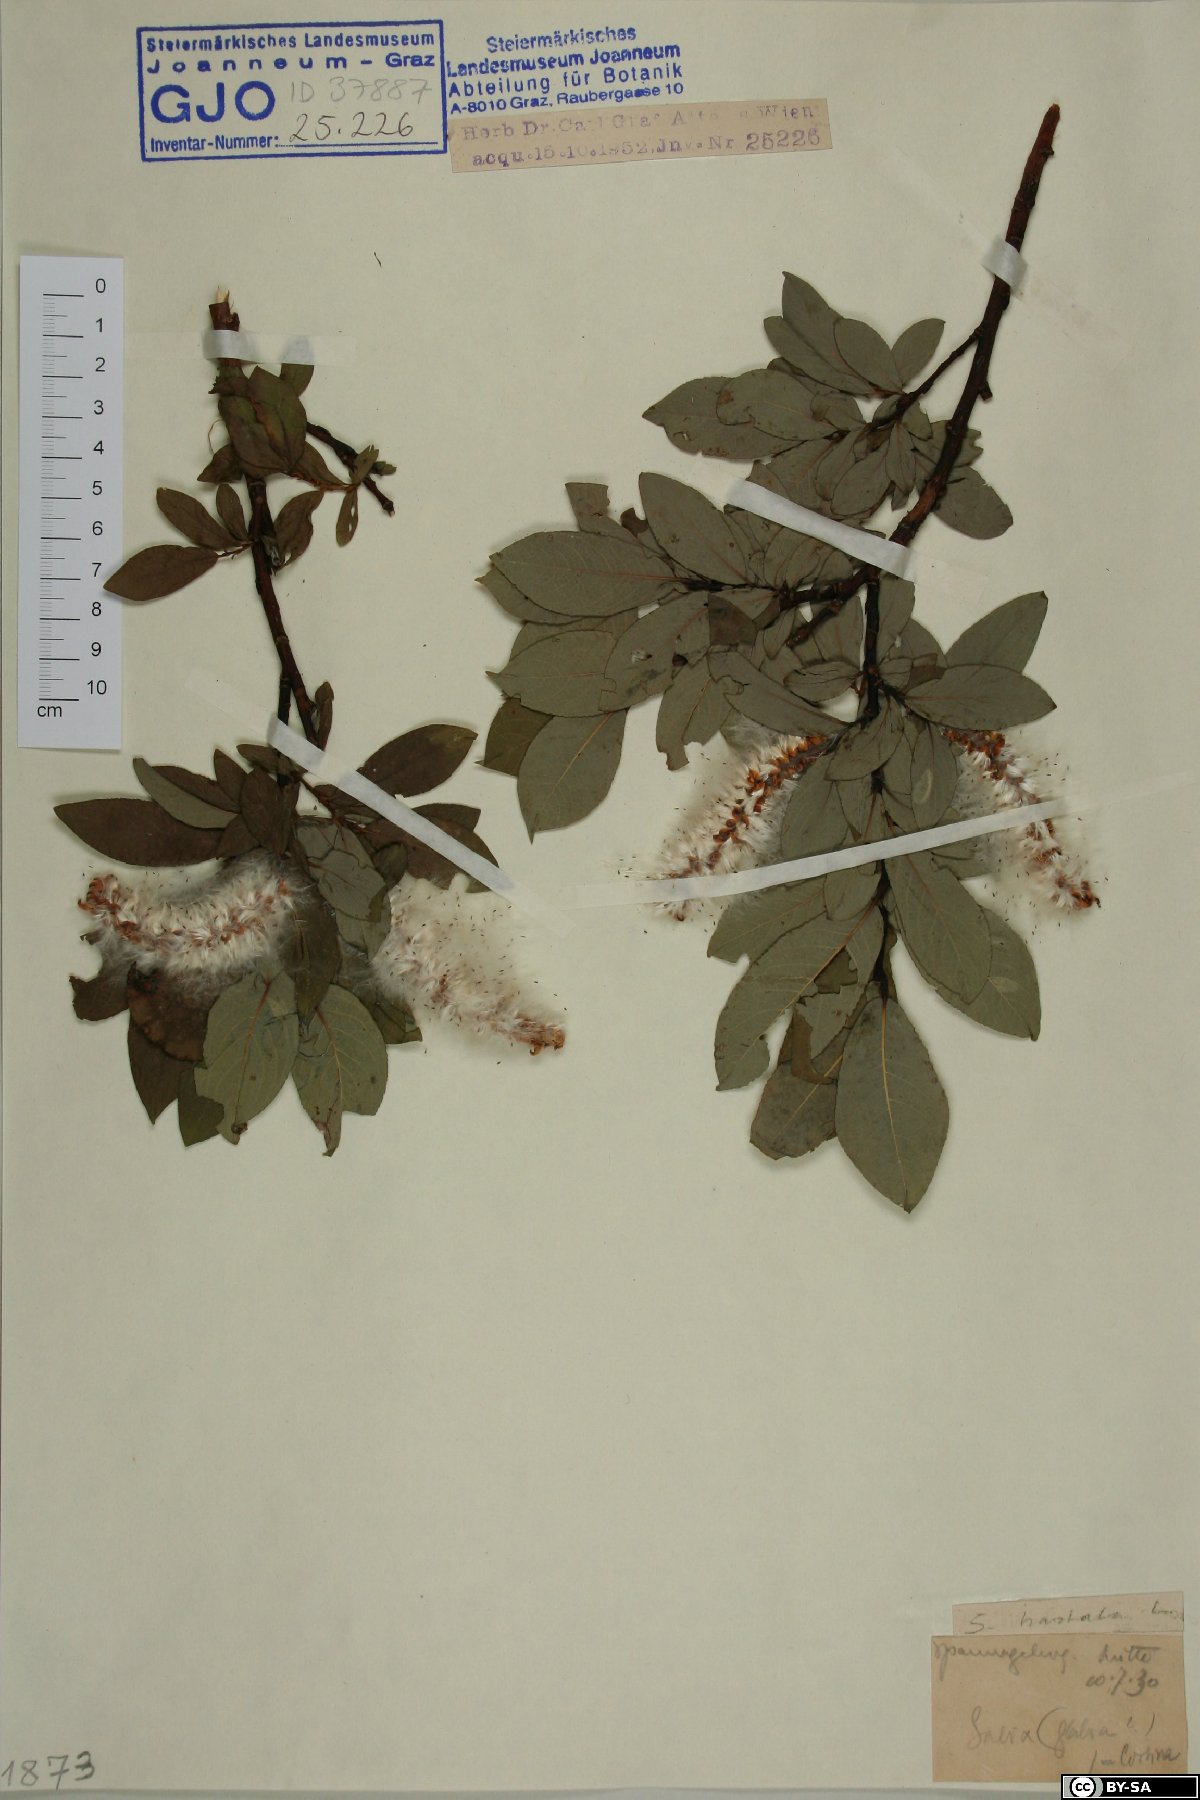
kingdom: Plantae
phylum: Tracheophyta
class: Magnoliopsida
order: Malpighiales
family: Salicaceae
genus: Salix
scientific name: Salix hastata
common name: Halberd willow
